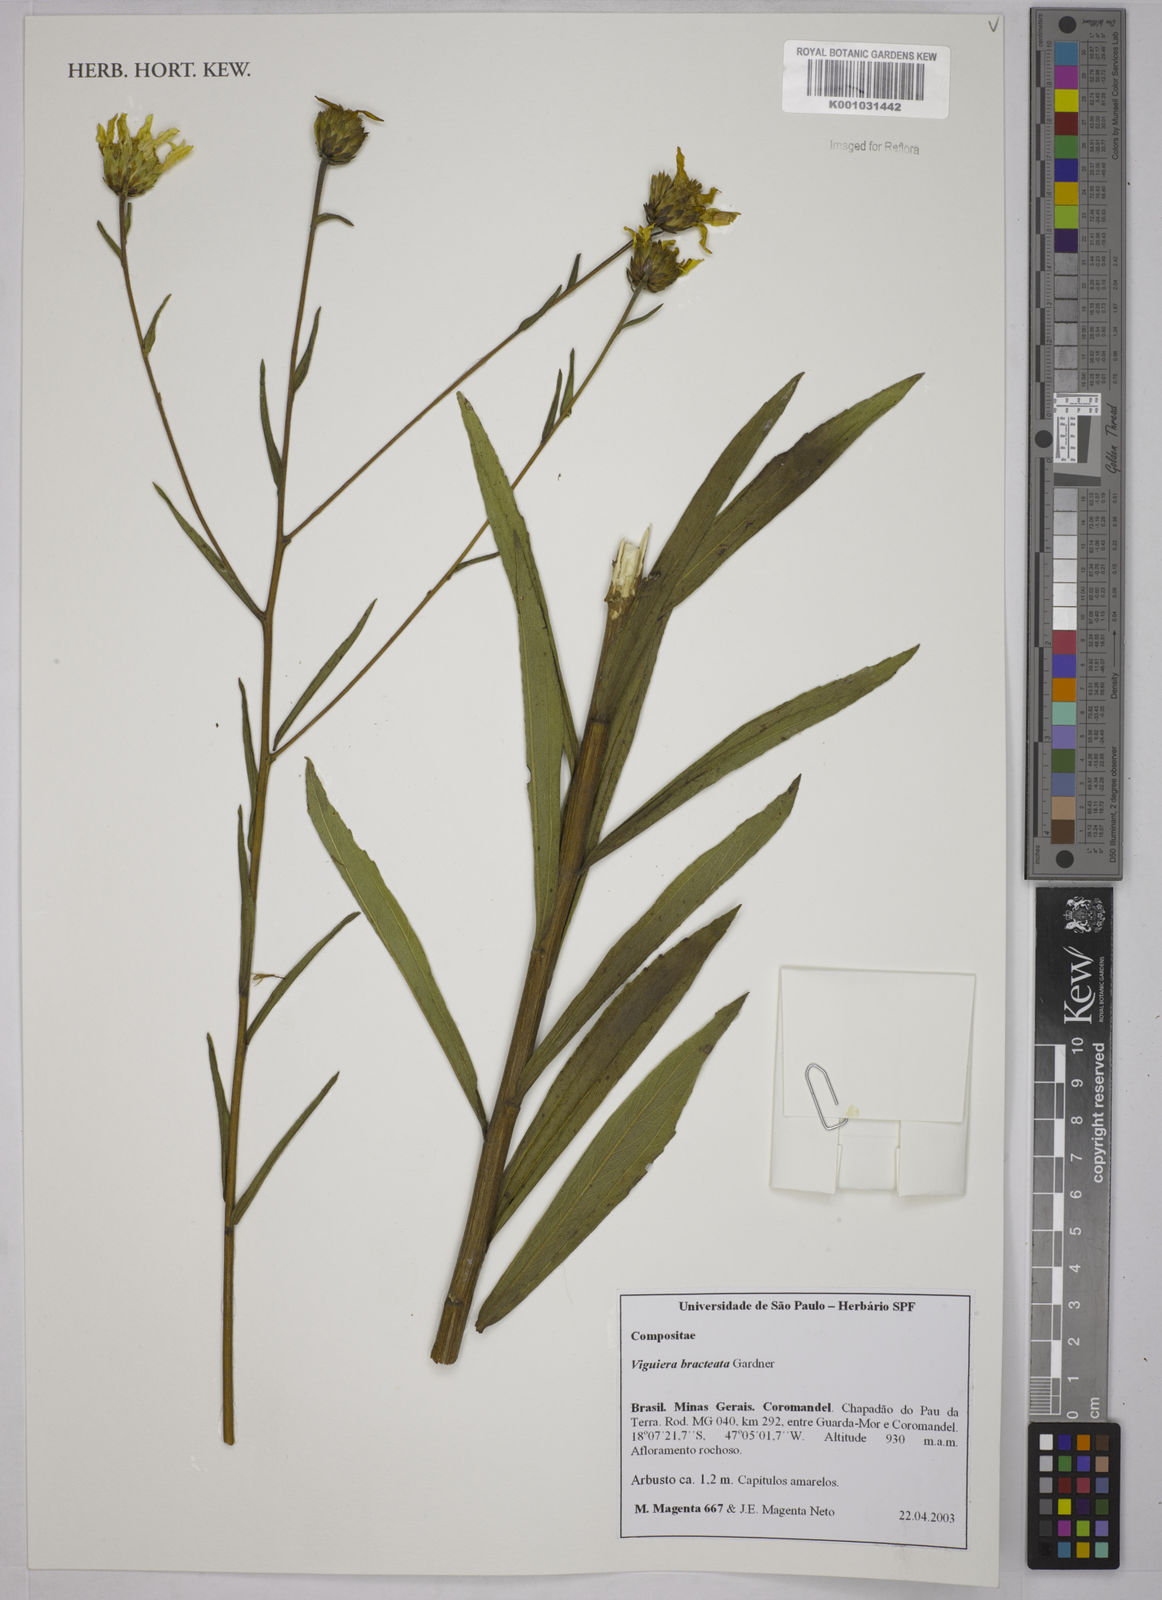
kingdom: Plantae
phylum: Tracheophyta
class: Magnoliopsida
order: Asterales
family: Asteraceae
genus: Aldama
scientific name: Aldama bracteata
